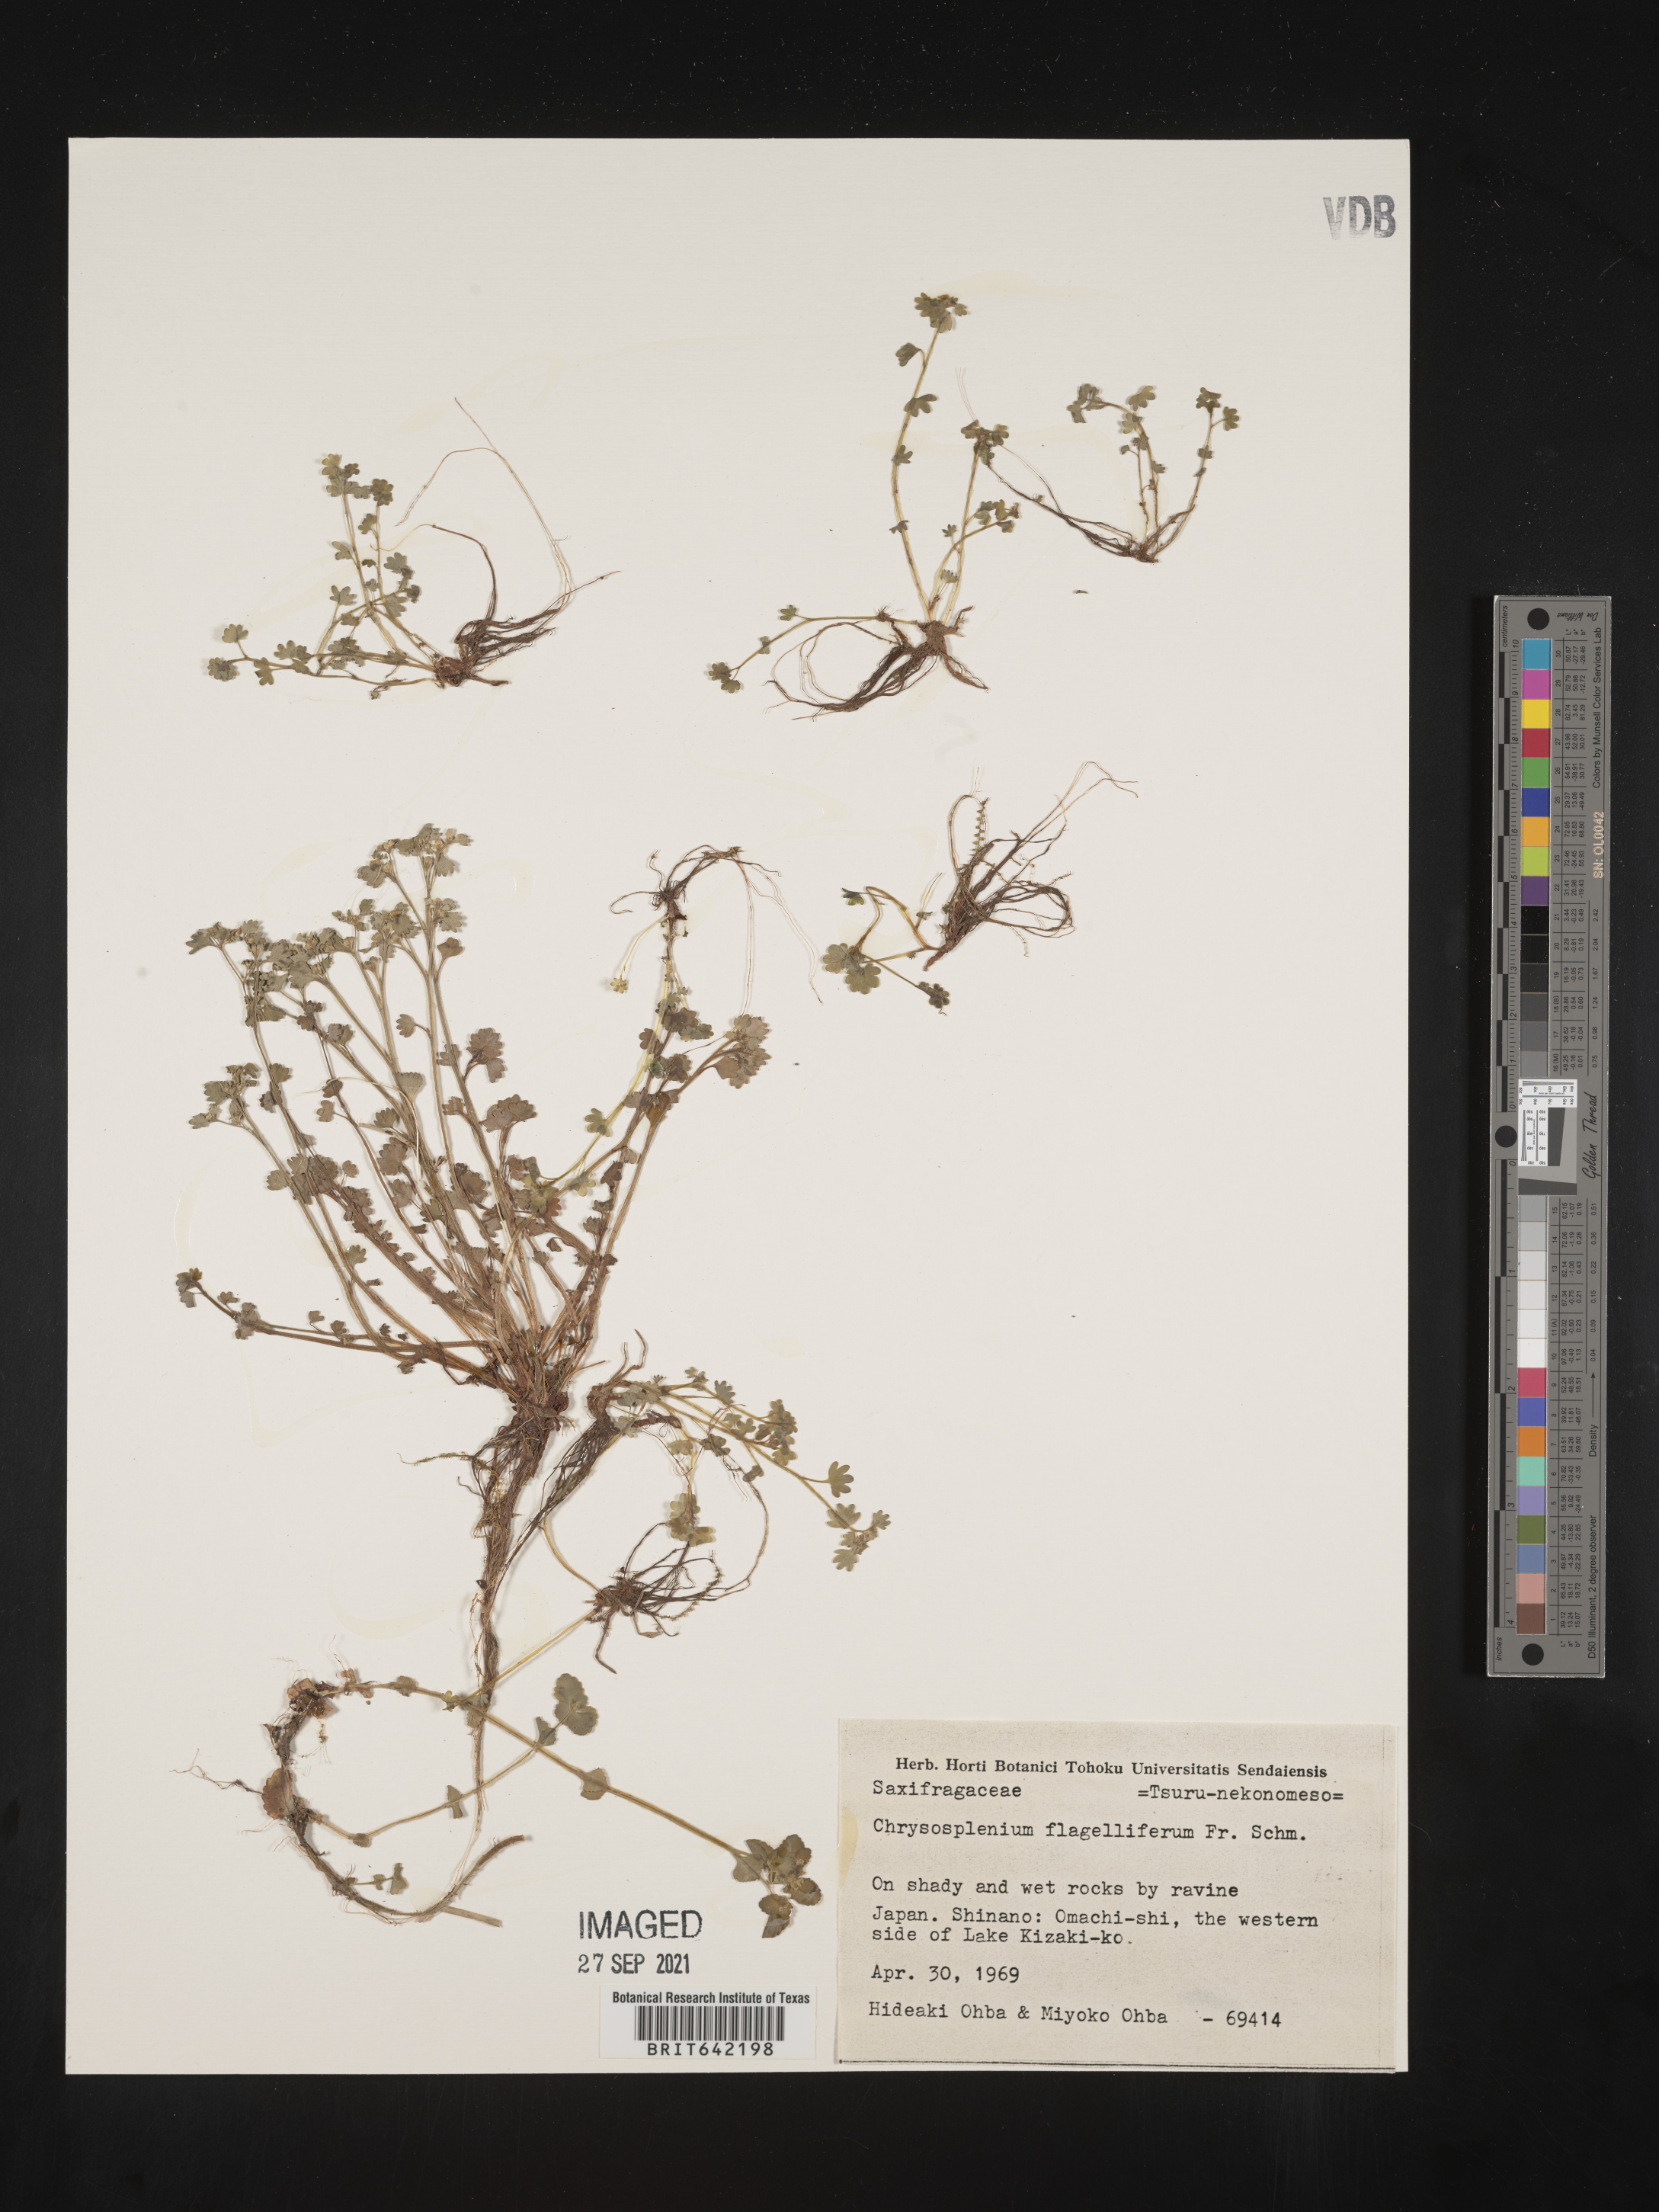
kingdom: Plantae
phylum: Tracheophyta
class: Magnoliopsida
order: Saxifragales
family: Saxifragaceae
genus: Chrysosplenium
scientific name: Chrysosplenium
